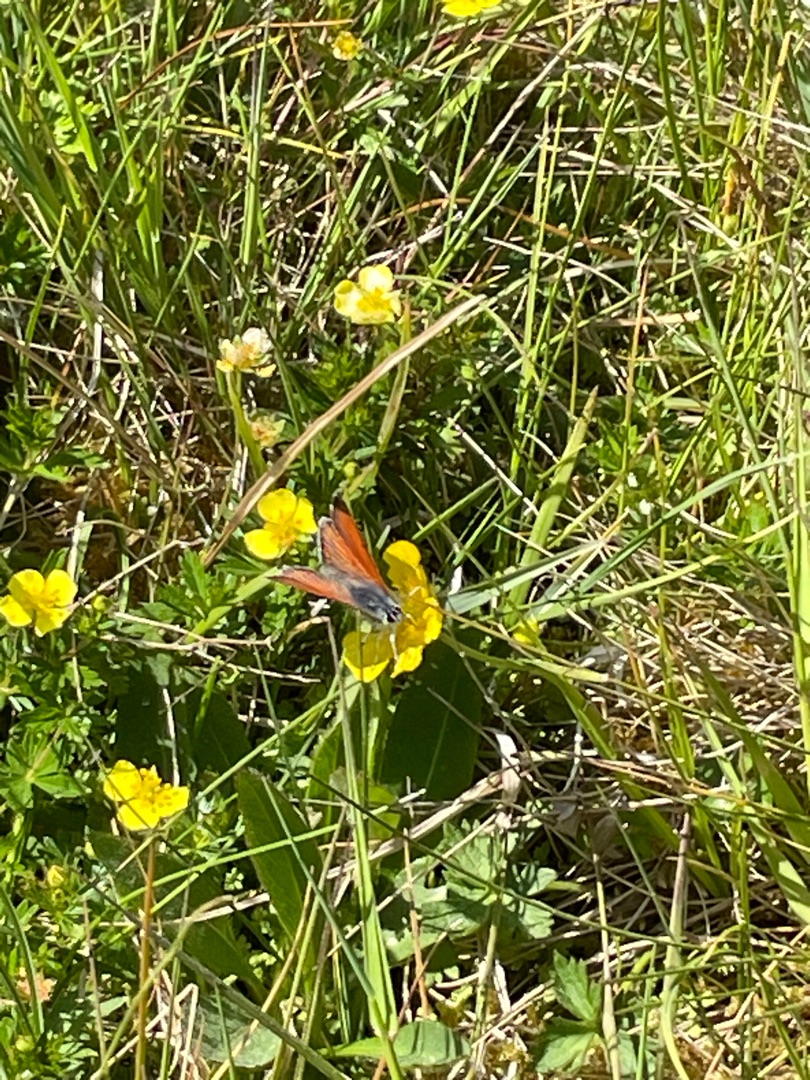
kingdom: Animalia
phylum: Arthropoda
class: Insecta
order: Lepidoptera
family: Lycaenidae
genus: Palaeochrysophanus
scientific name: Palaeochrysophanus hippothoe
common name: Violetrandet ildfugl
